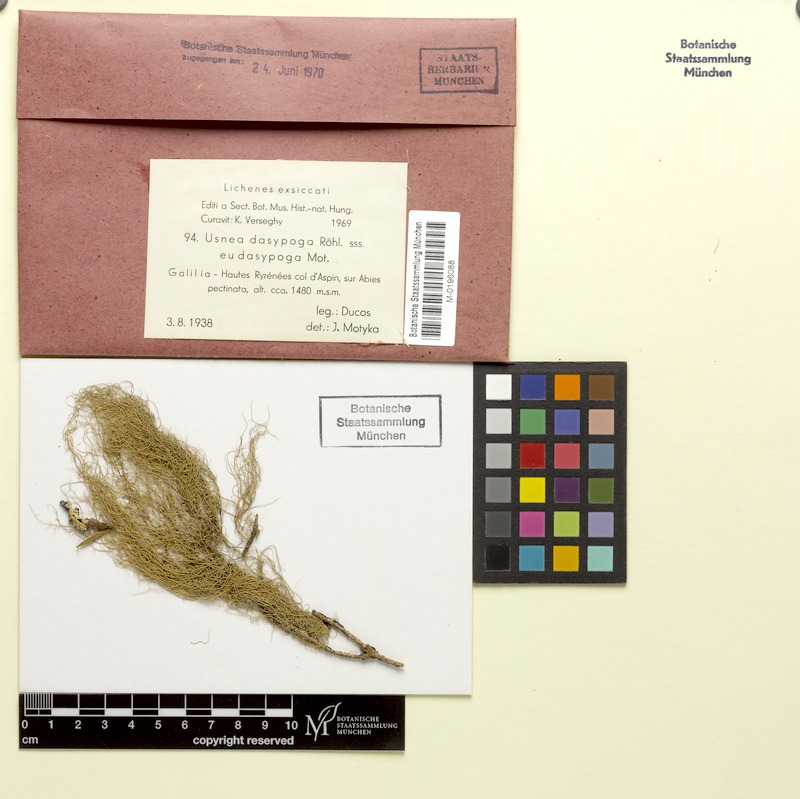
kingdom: Fungi
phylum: Ascomycota
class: Lecanoromycetes
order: Lecanorales
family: Parmeliaceae
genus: Usnea
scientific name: Usnea filipendula
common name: Fishbone beard lichen
